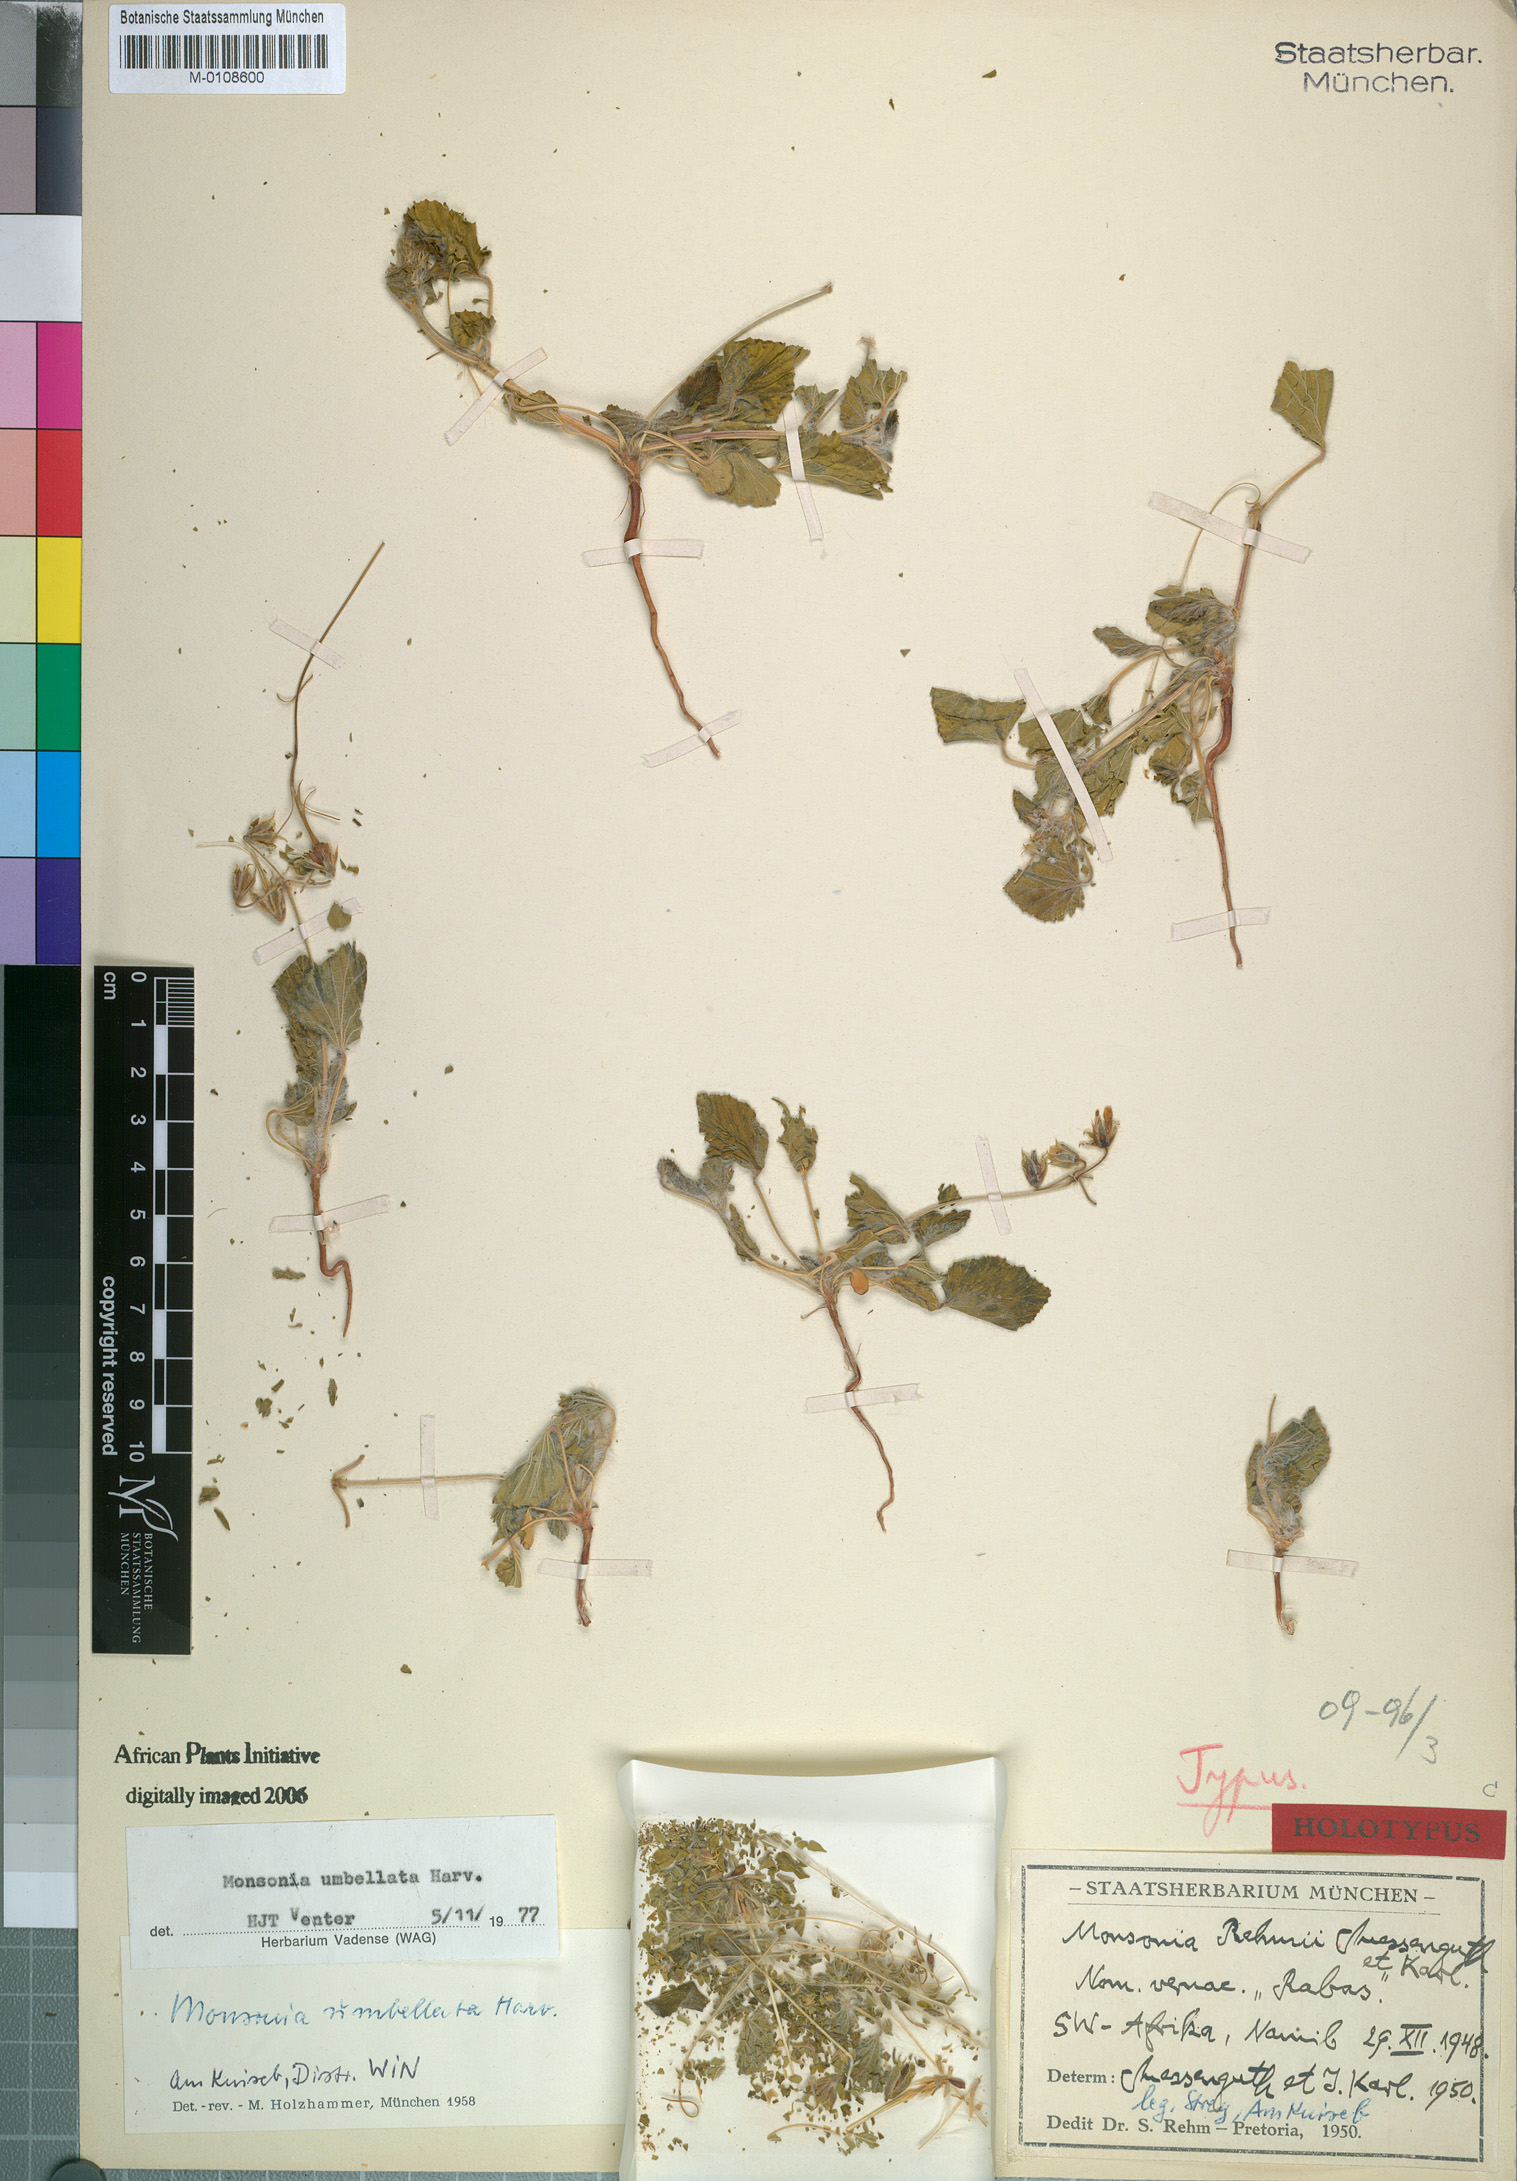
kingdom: Plantae
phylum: Tracheophyta
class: Magnoliopsida
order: Geraniales
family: Geraniaceae
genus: Monsonia
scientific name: Monsonia umbellata
